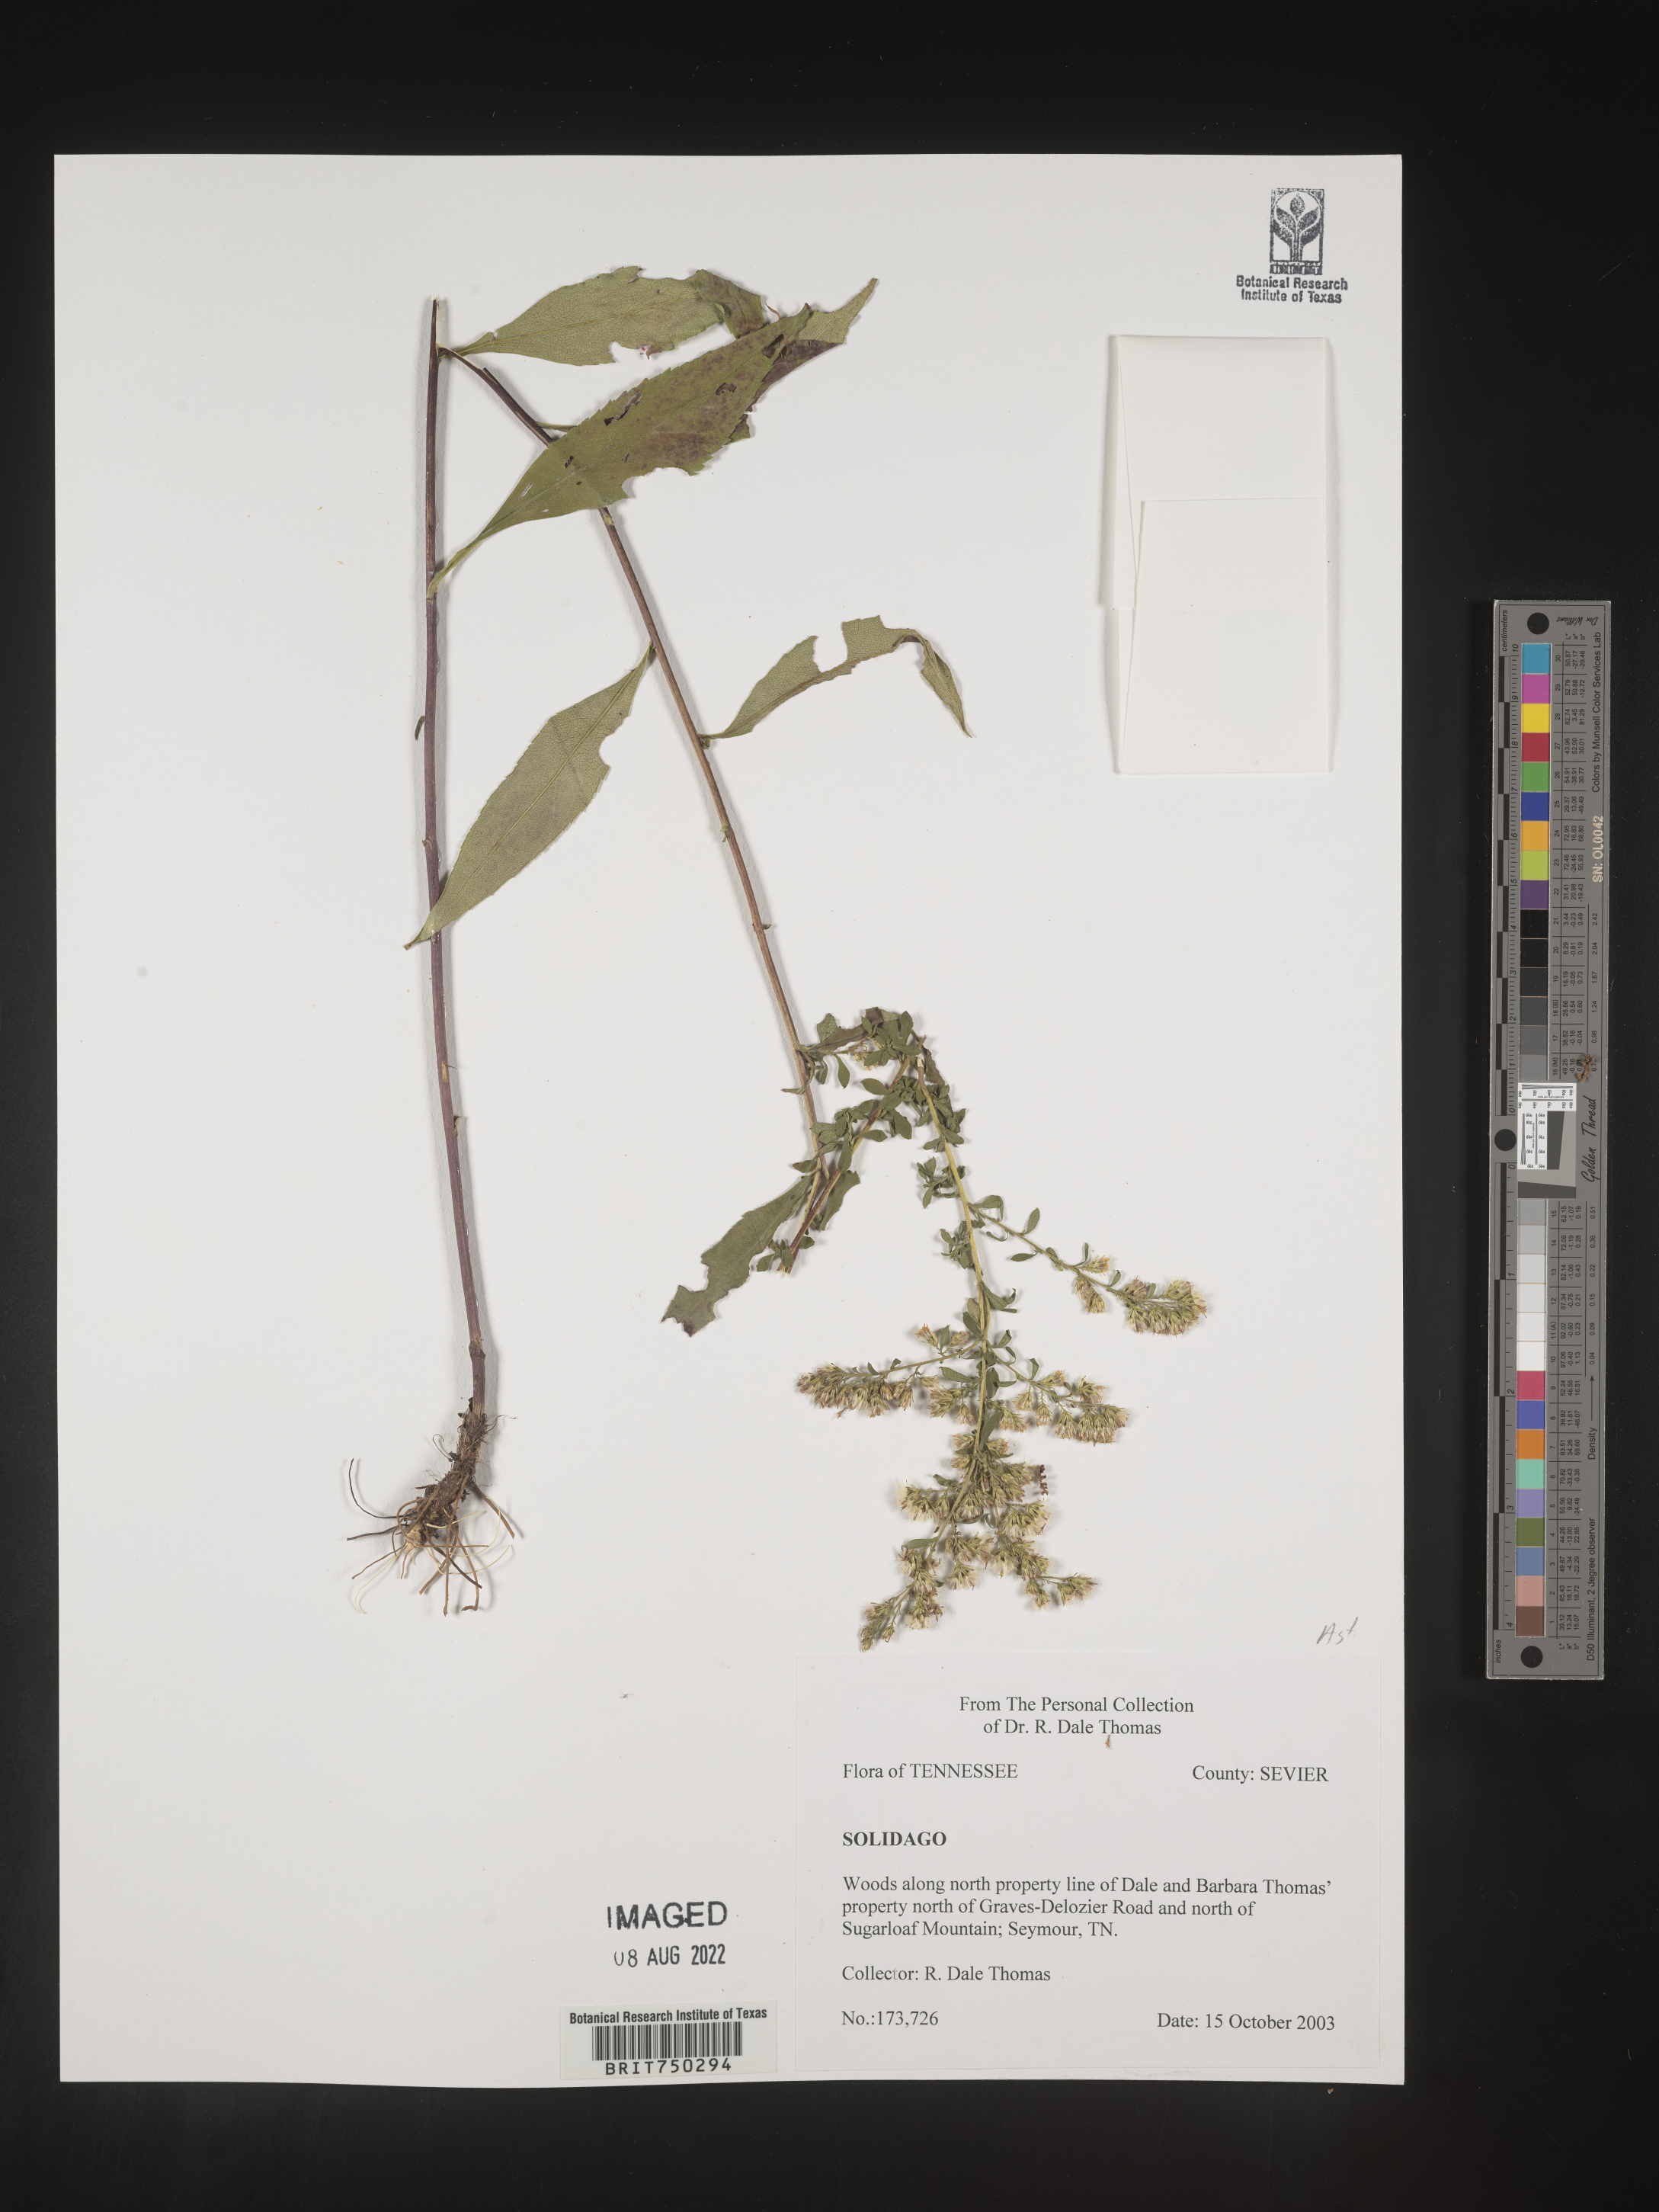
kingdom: Plantae
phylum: Tracheophyta
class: Magnoliopsida
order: Asterales
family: Asteraceae
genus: Solidago
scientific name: Solidago
